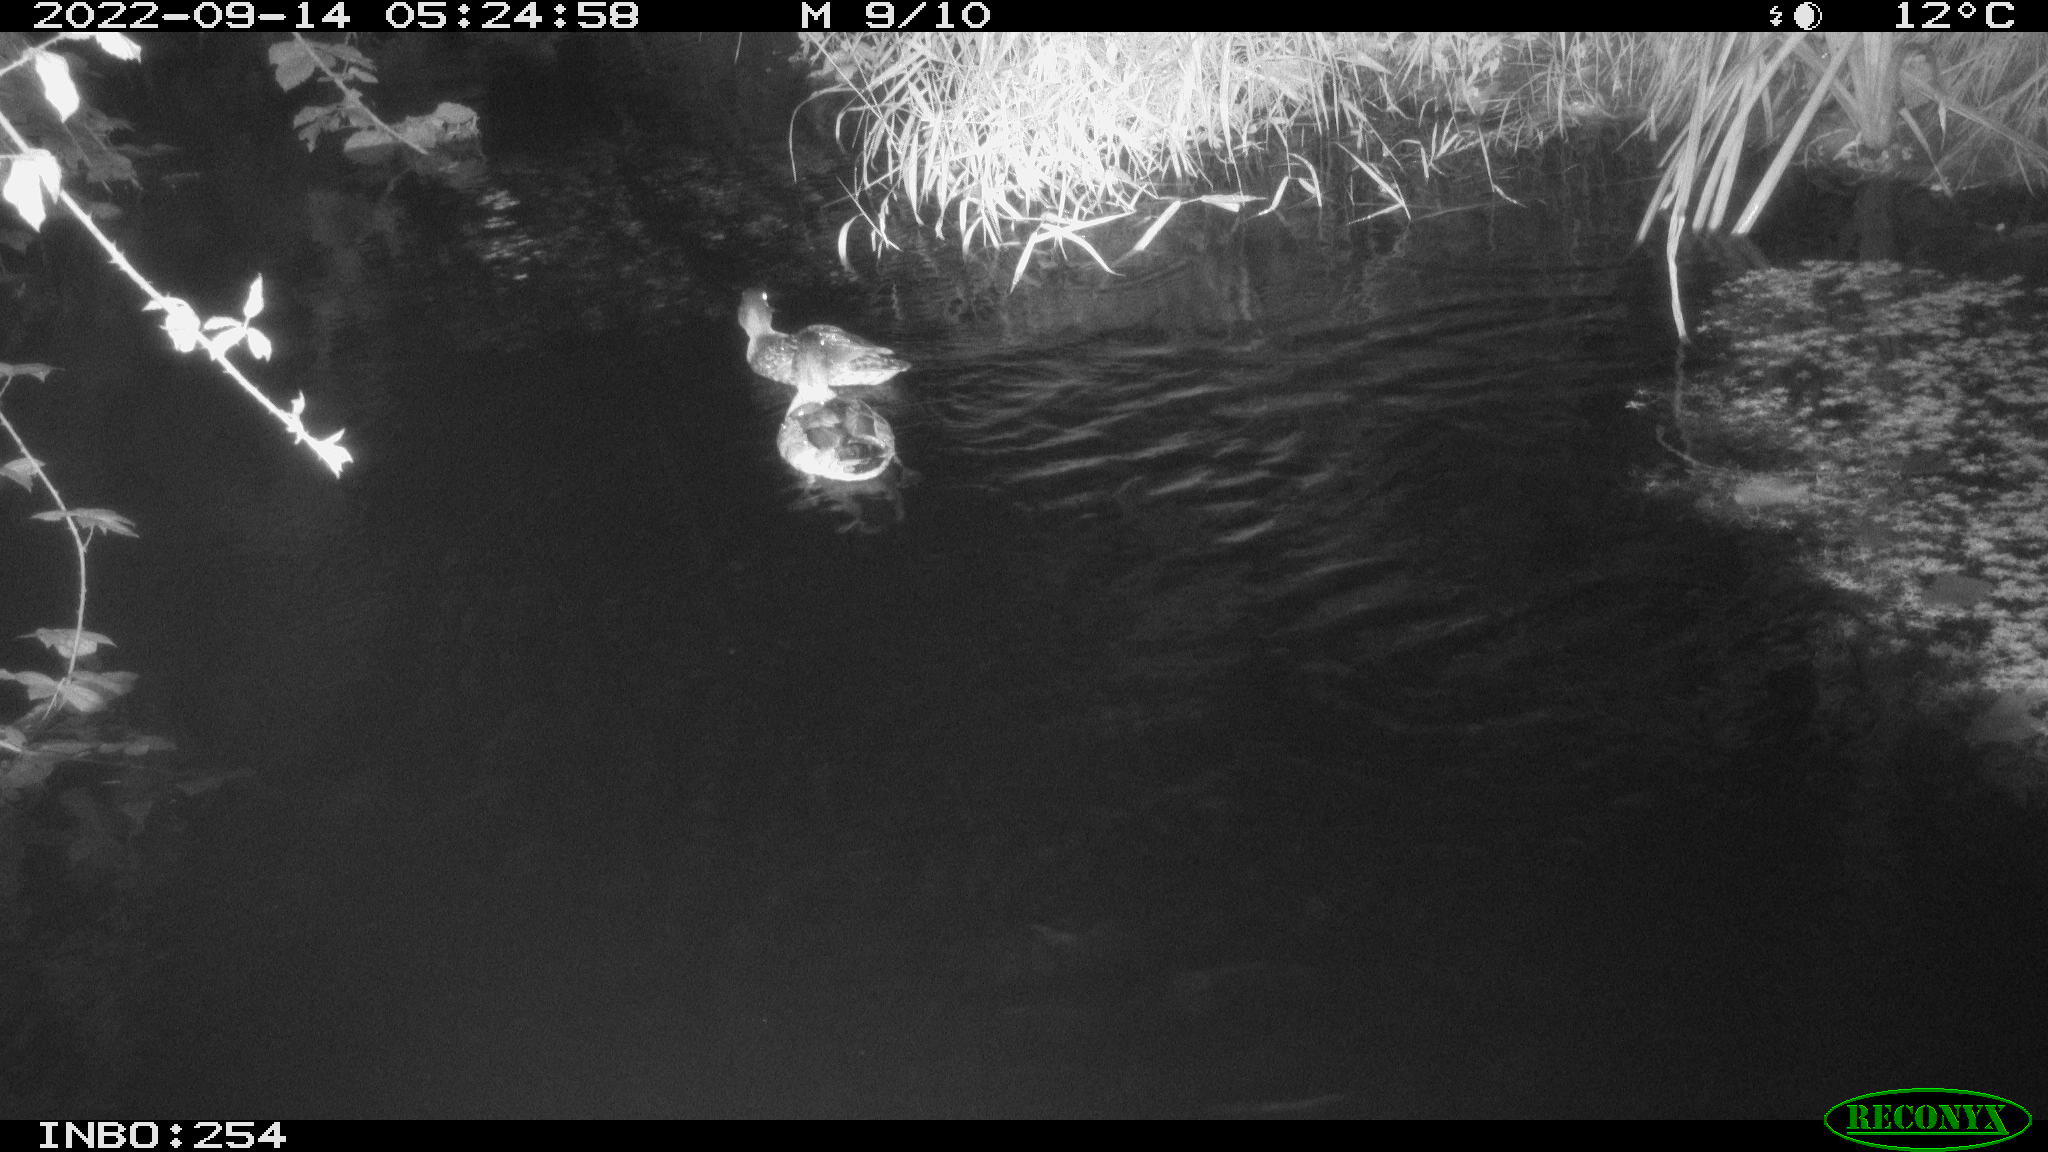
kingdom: Animalia
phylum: Chordata
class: Aves
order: Anseriformes
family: Anatidae
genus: Anas
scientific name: Anas platyrhynchos
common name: Mallard
